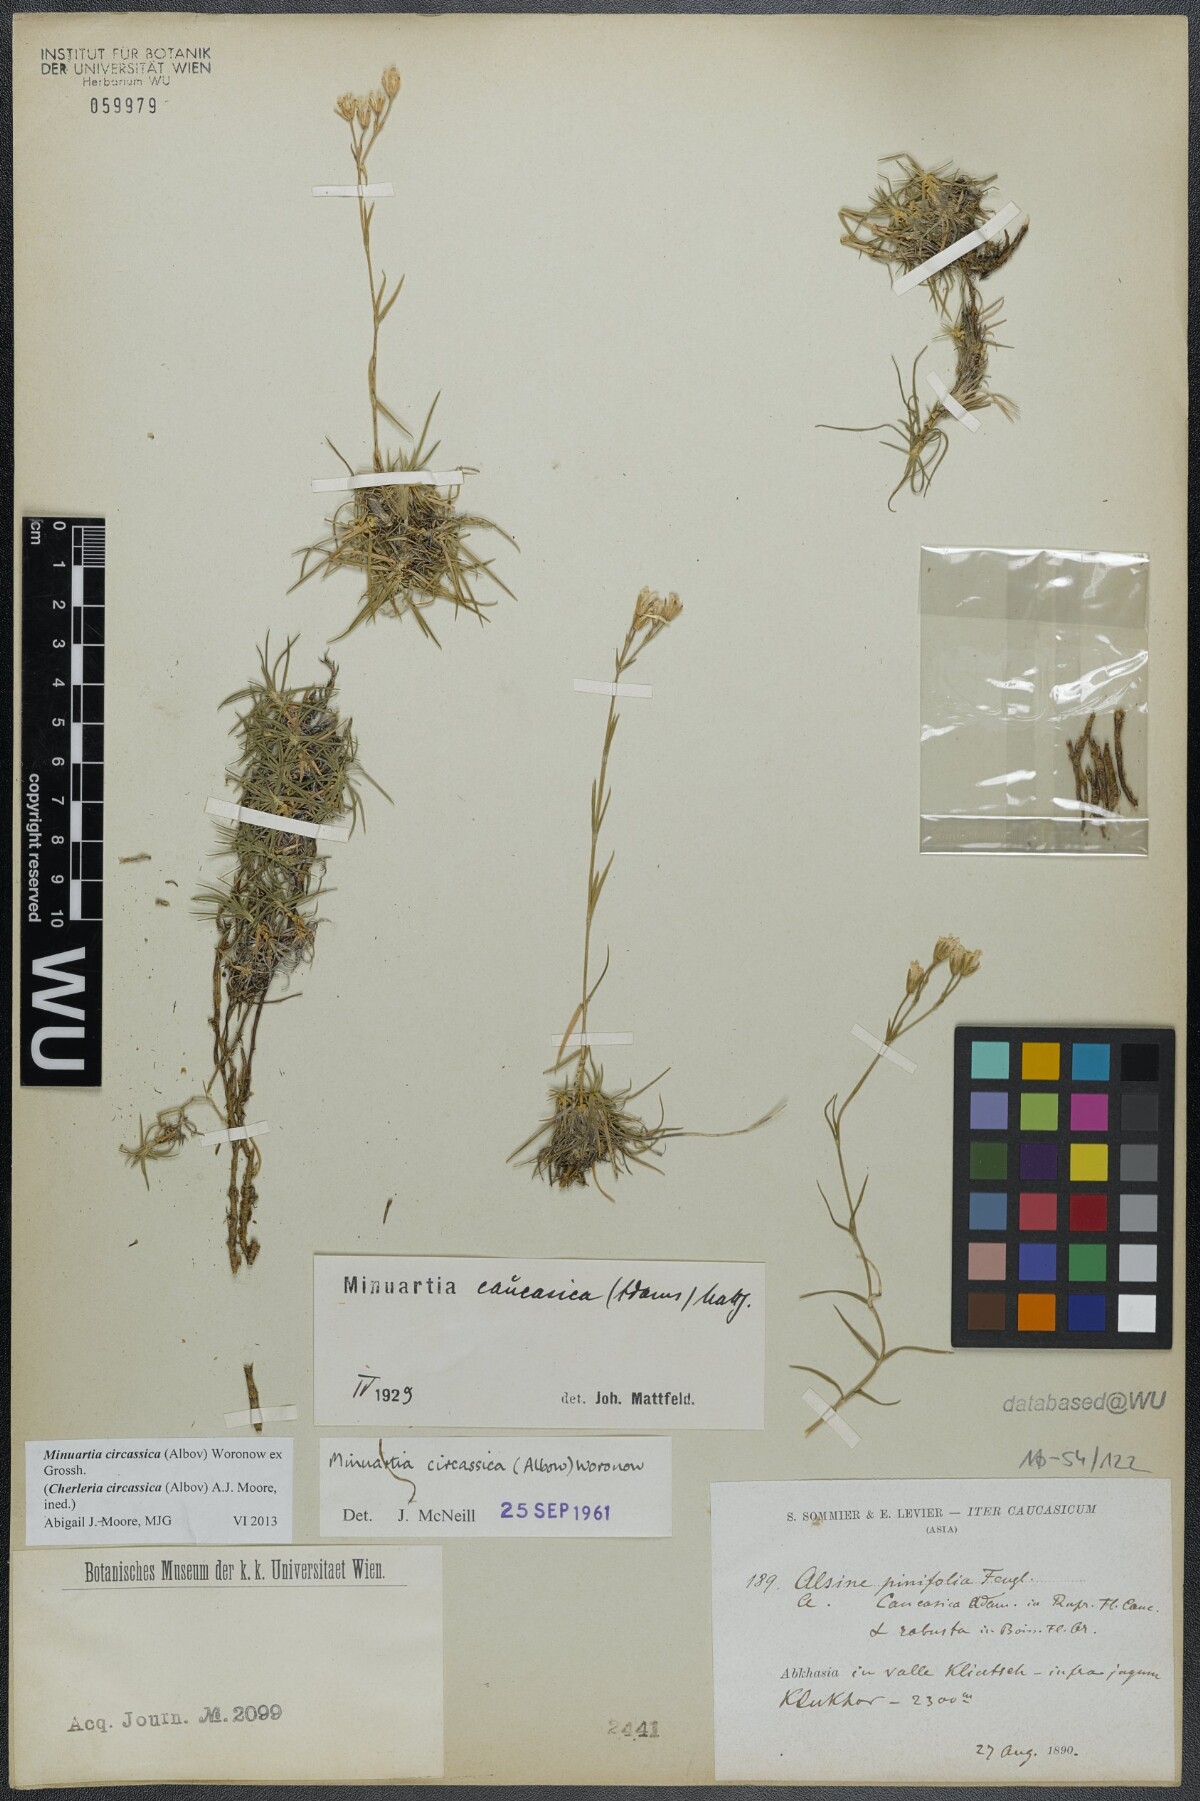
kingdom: Plantae
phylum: Tracheophyta
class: Magnoliopsida
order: Caryophyllales
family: Caryophyllaceae
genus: Cherleria
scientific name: Cherleria circassica
